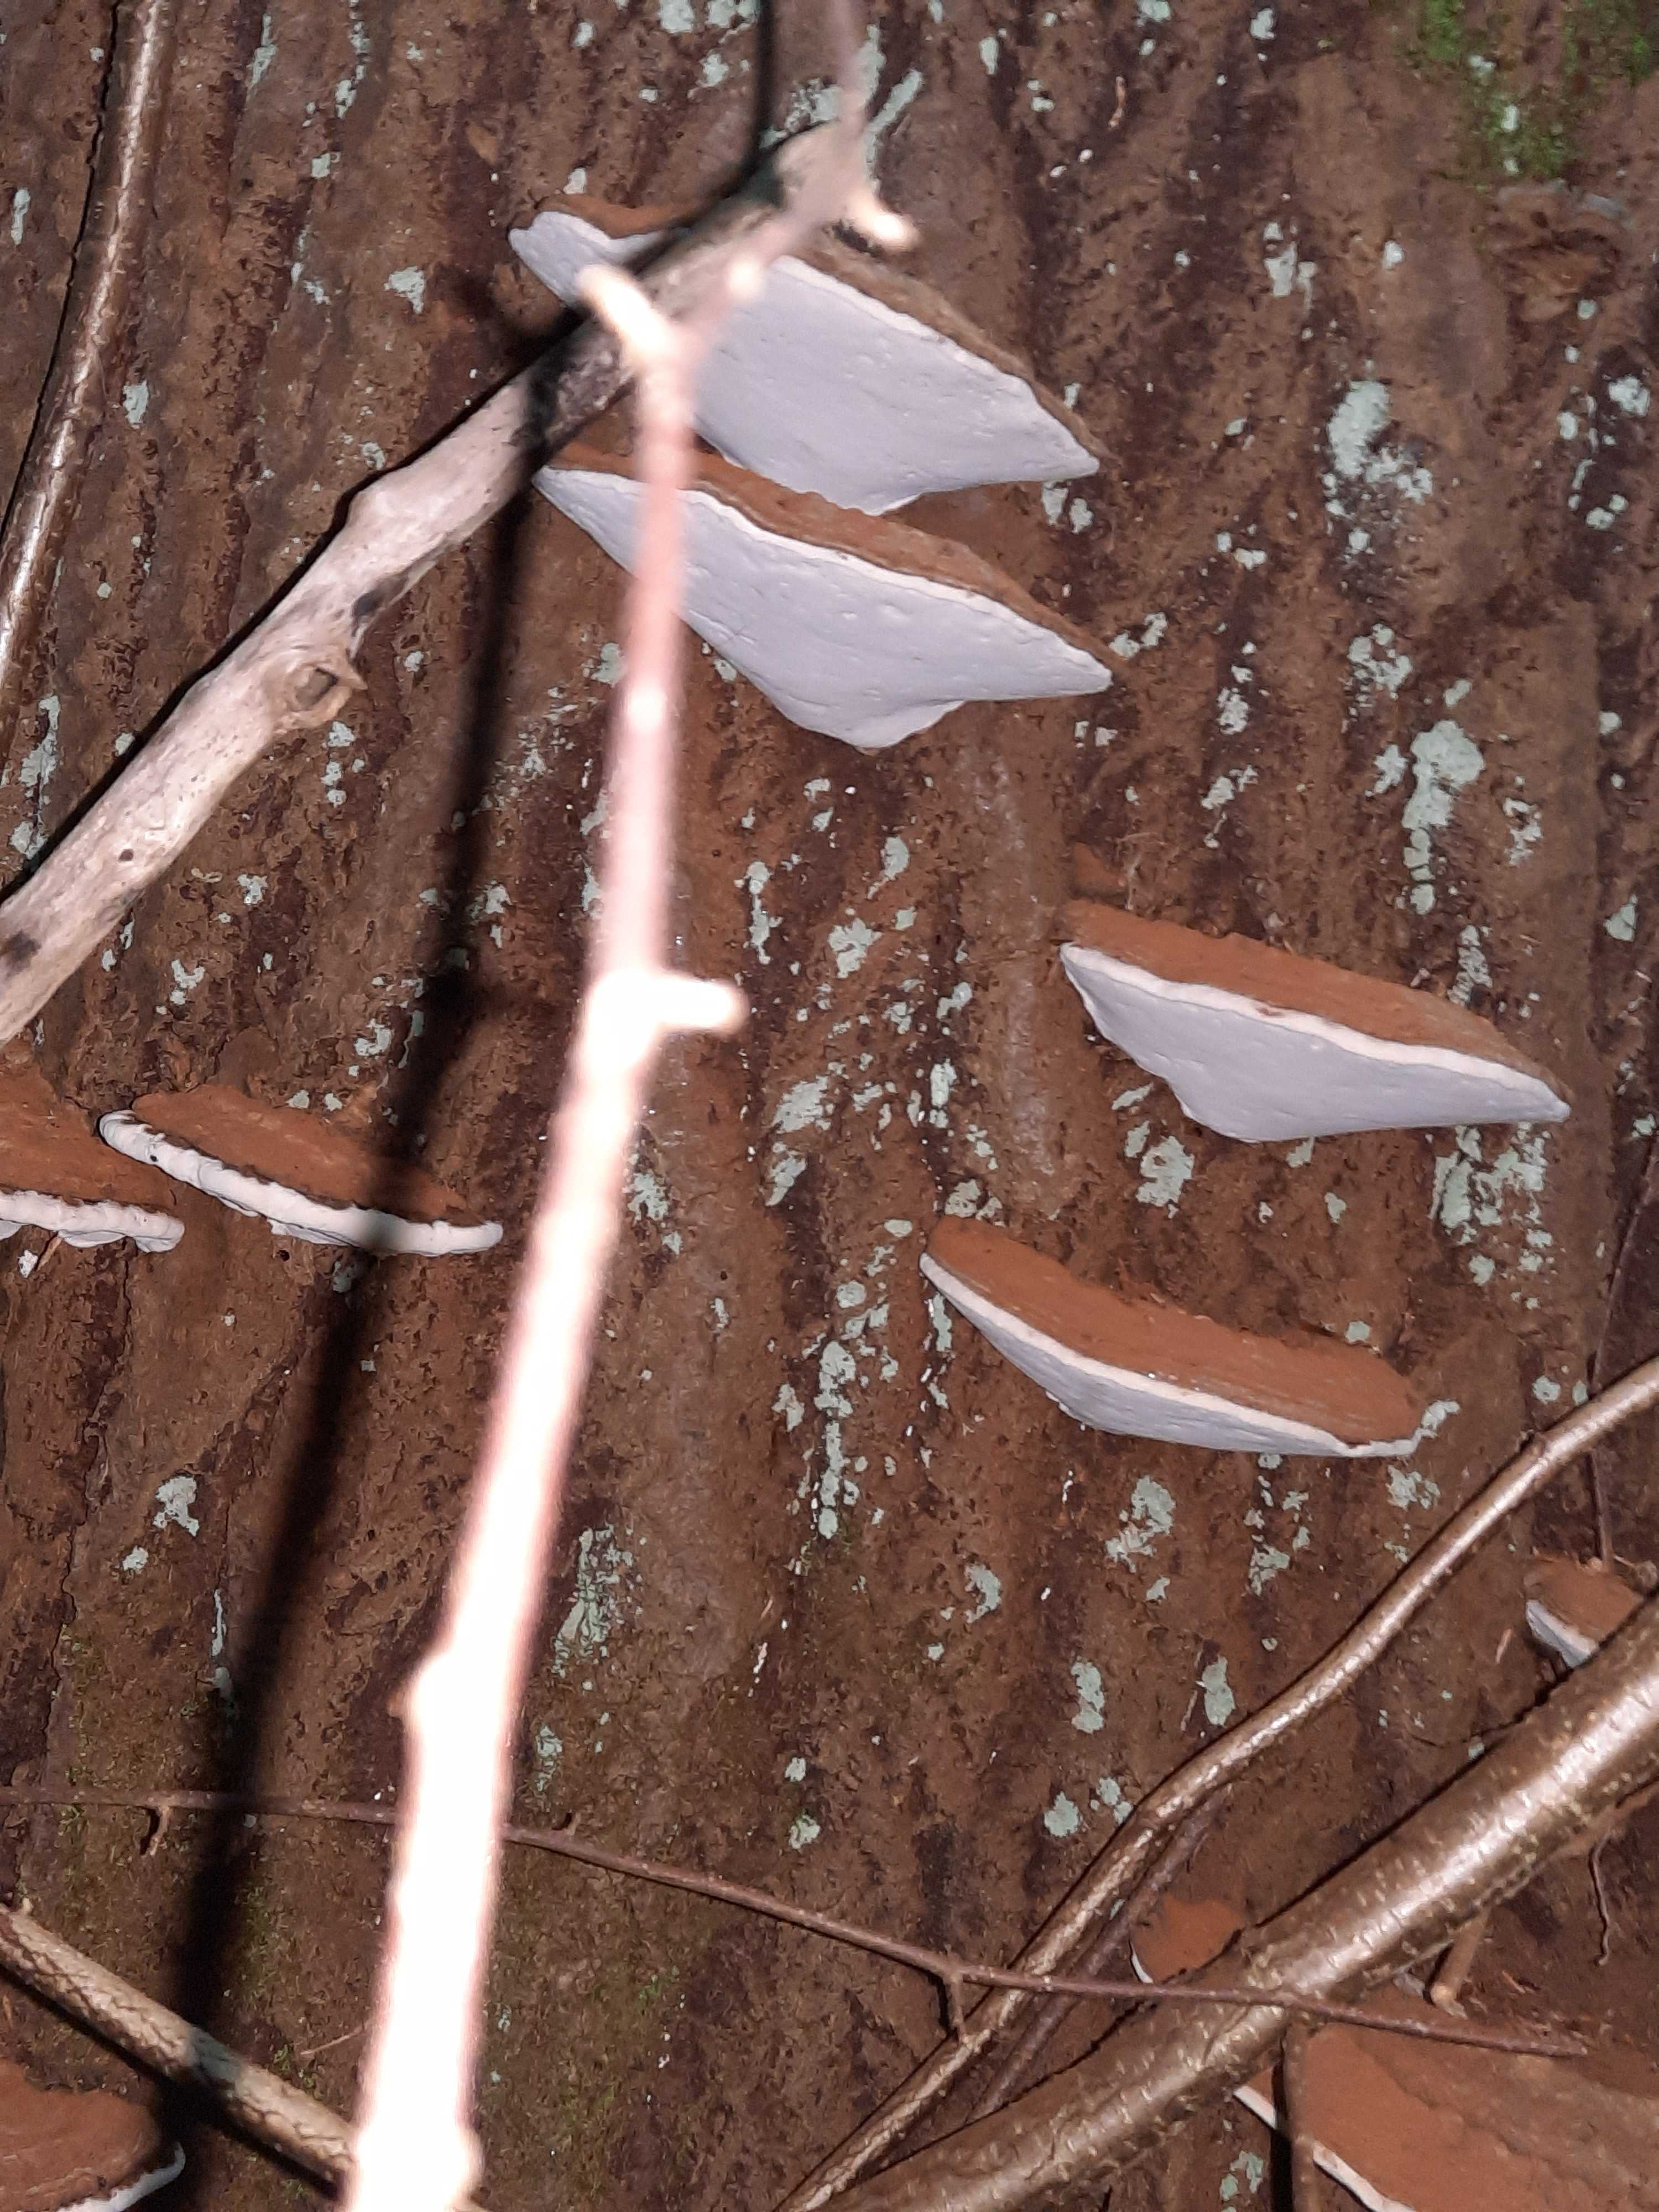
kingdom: Fungi
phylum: Basidiomycota
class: Agaricomycetes
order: Polyporales
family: Polyporaceae
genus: Ganoderma
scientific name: Ganoderma applanatum
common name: flad lakporesvamp
